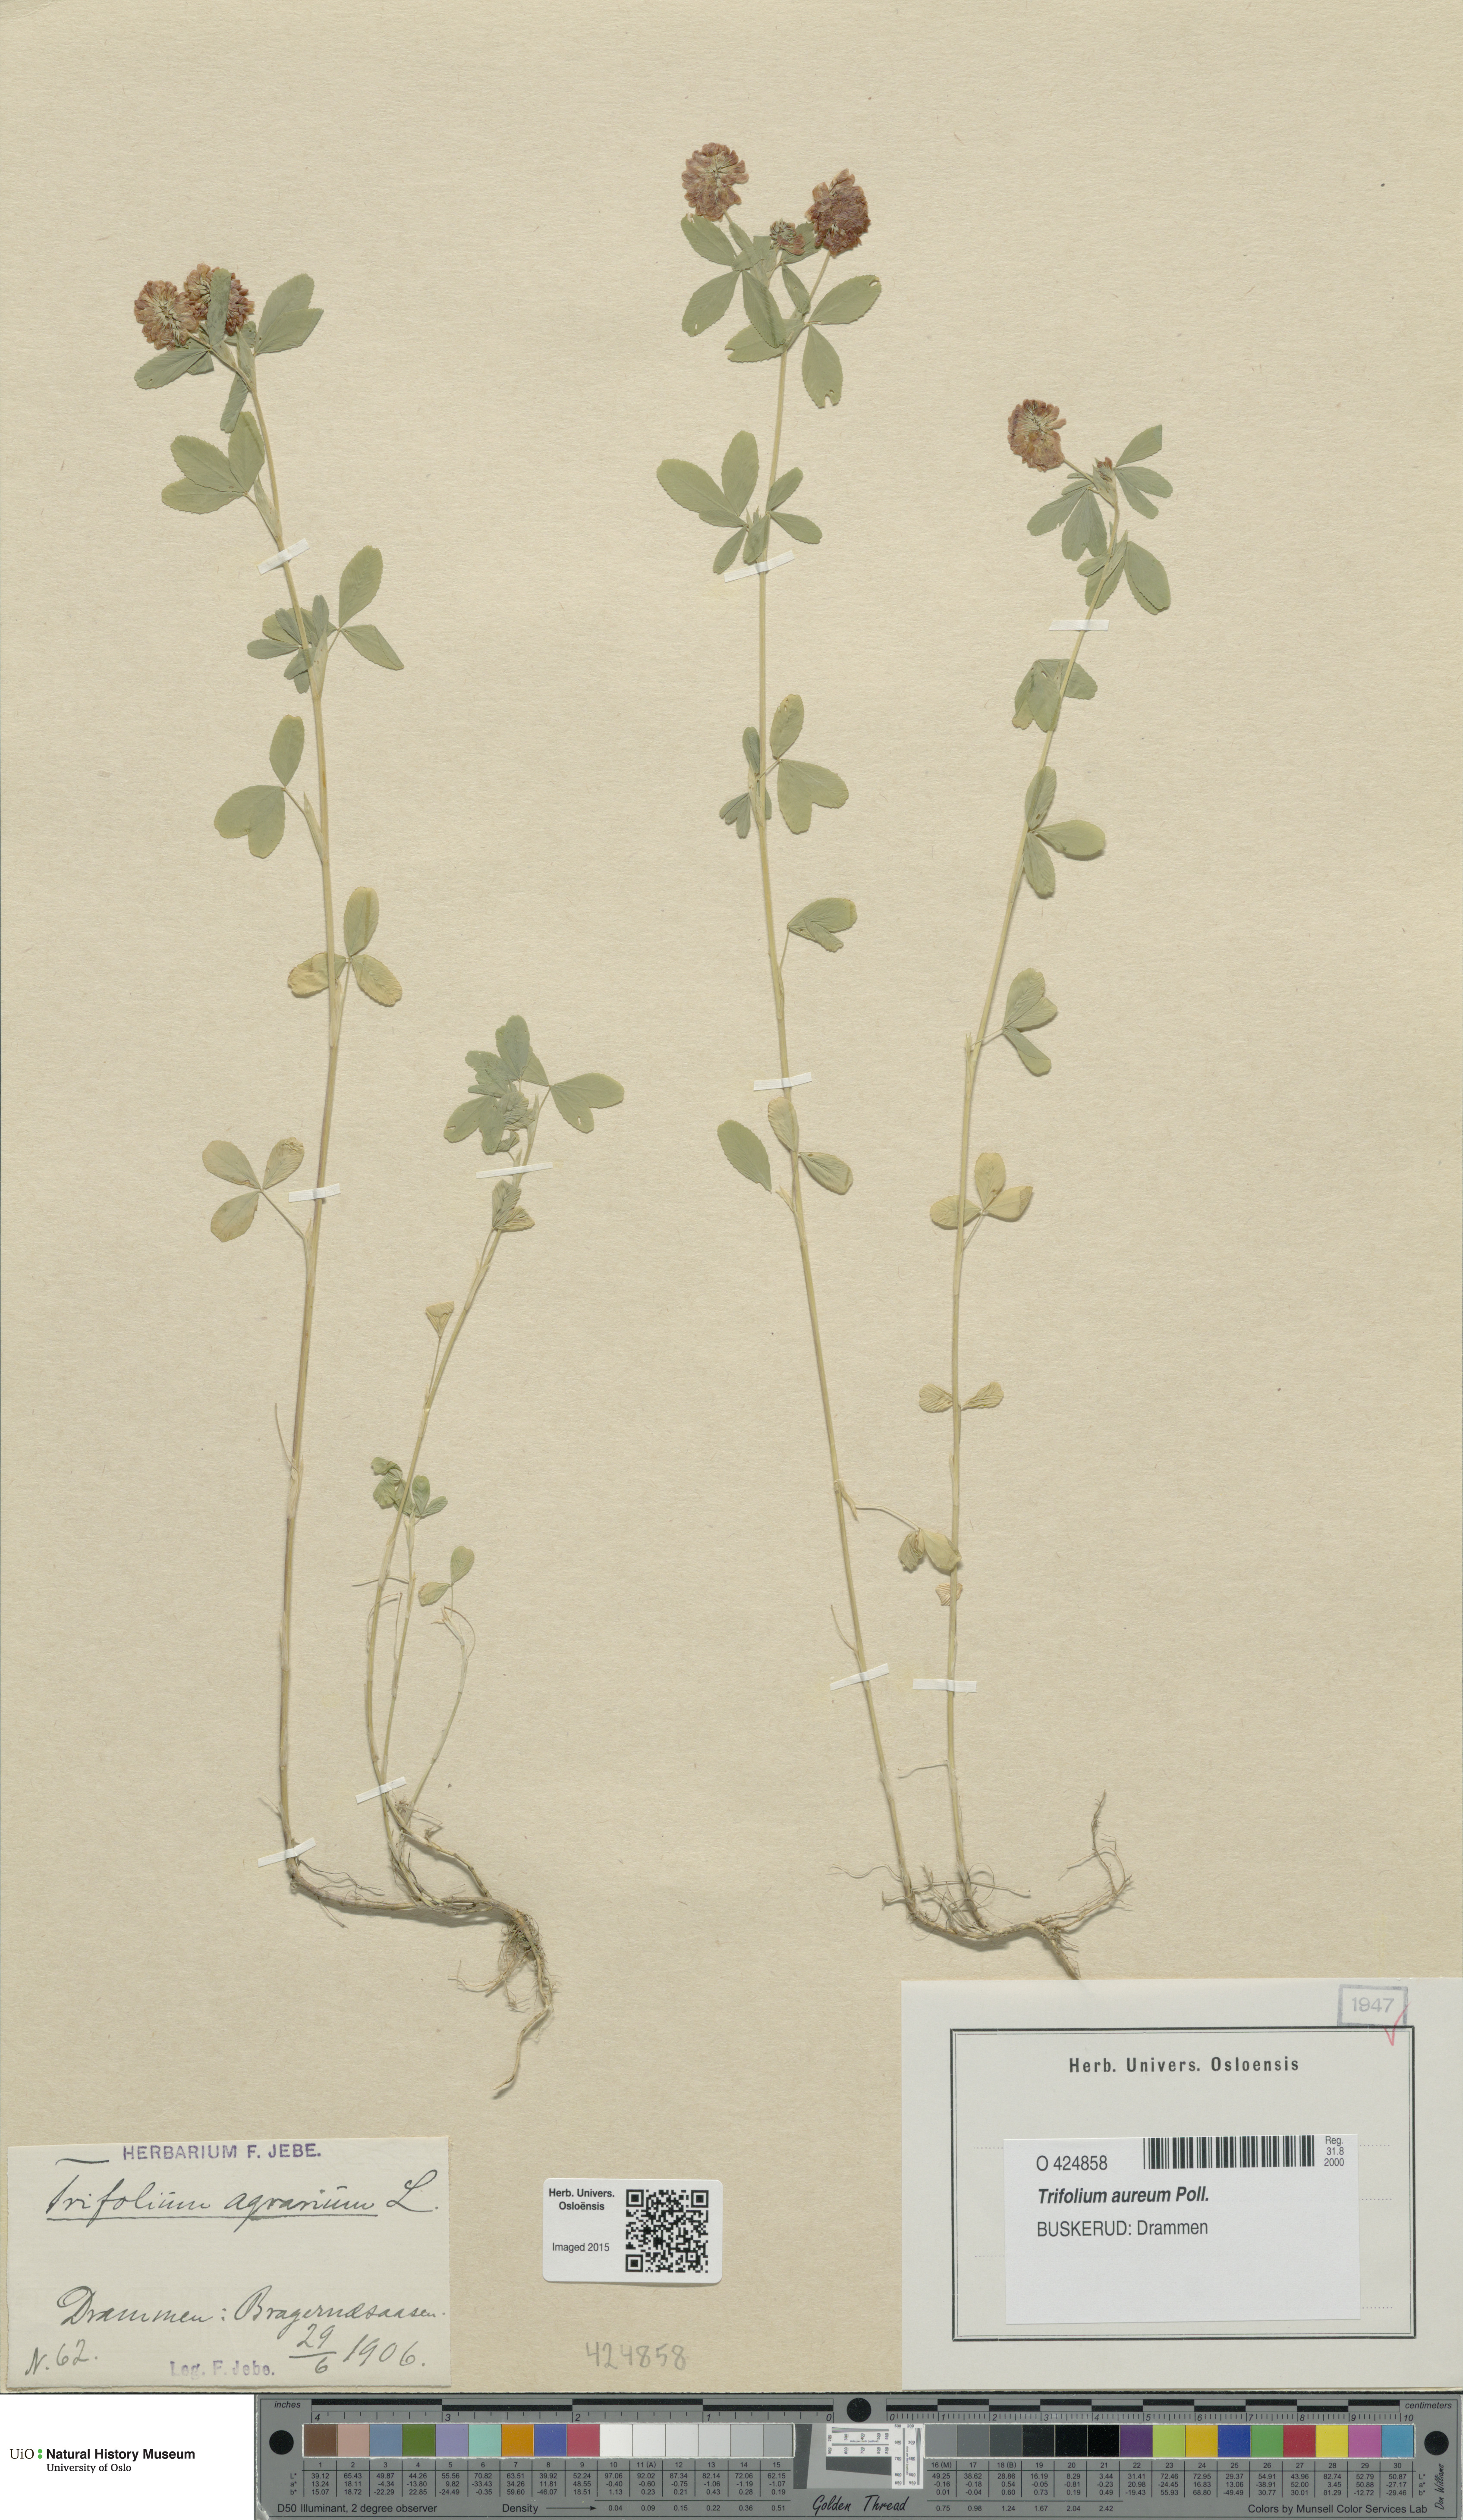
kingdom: Plantae
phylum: Tracheophyta
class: Magnoliopsida
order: Fabales
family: Fabaceae
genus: Trifolium
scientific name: Trifolium aureum
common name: Golden clover
